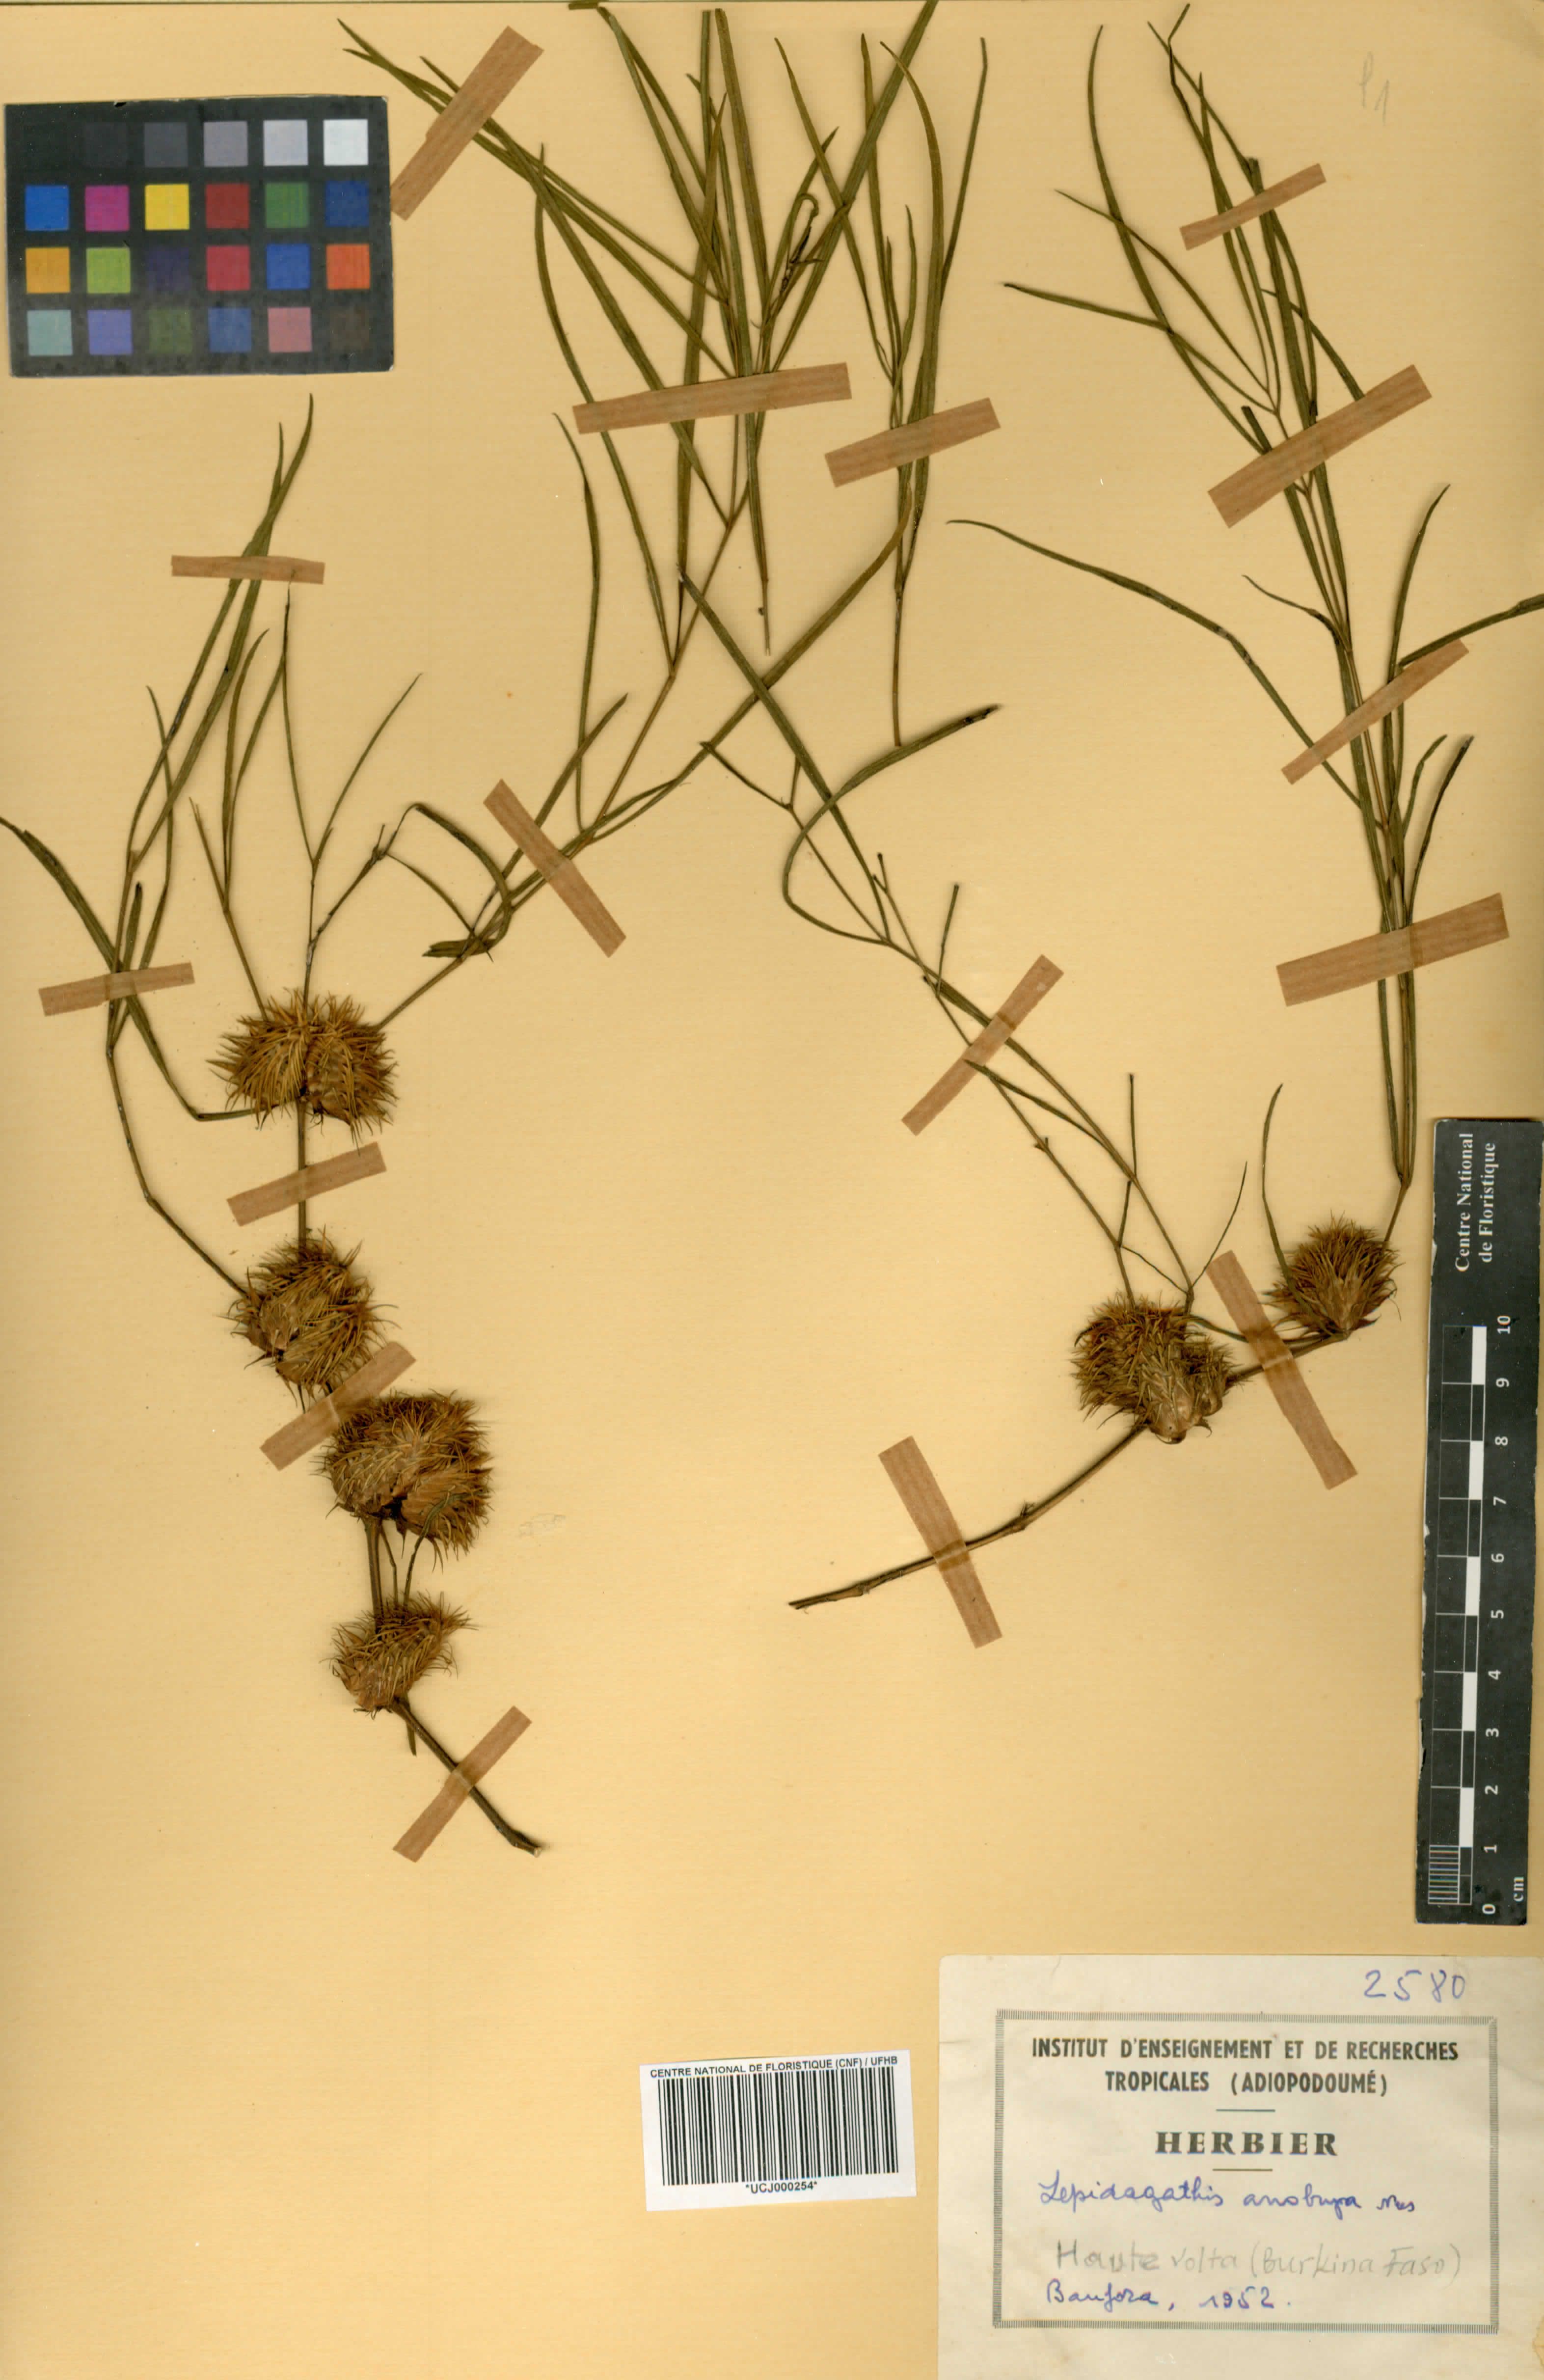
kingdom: Plantae
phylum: Tracheophyta
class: Magnoliopsida
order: Lamiales
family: Acanthaceae
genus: Lepidagathis
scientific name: Lepidagathis anobrya
